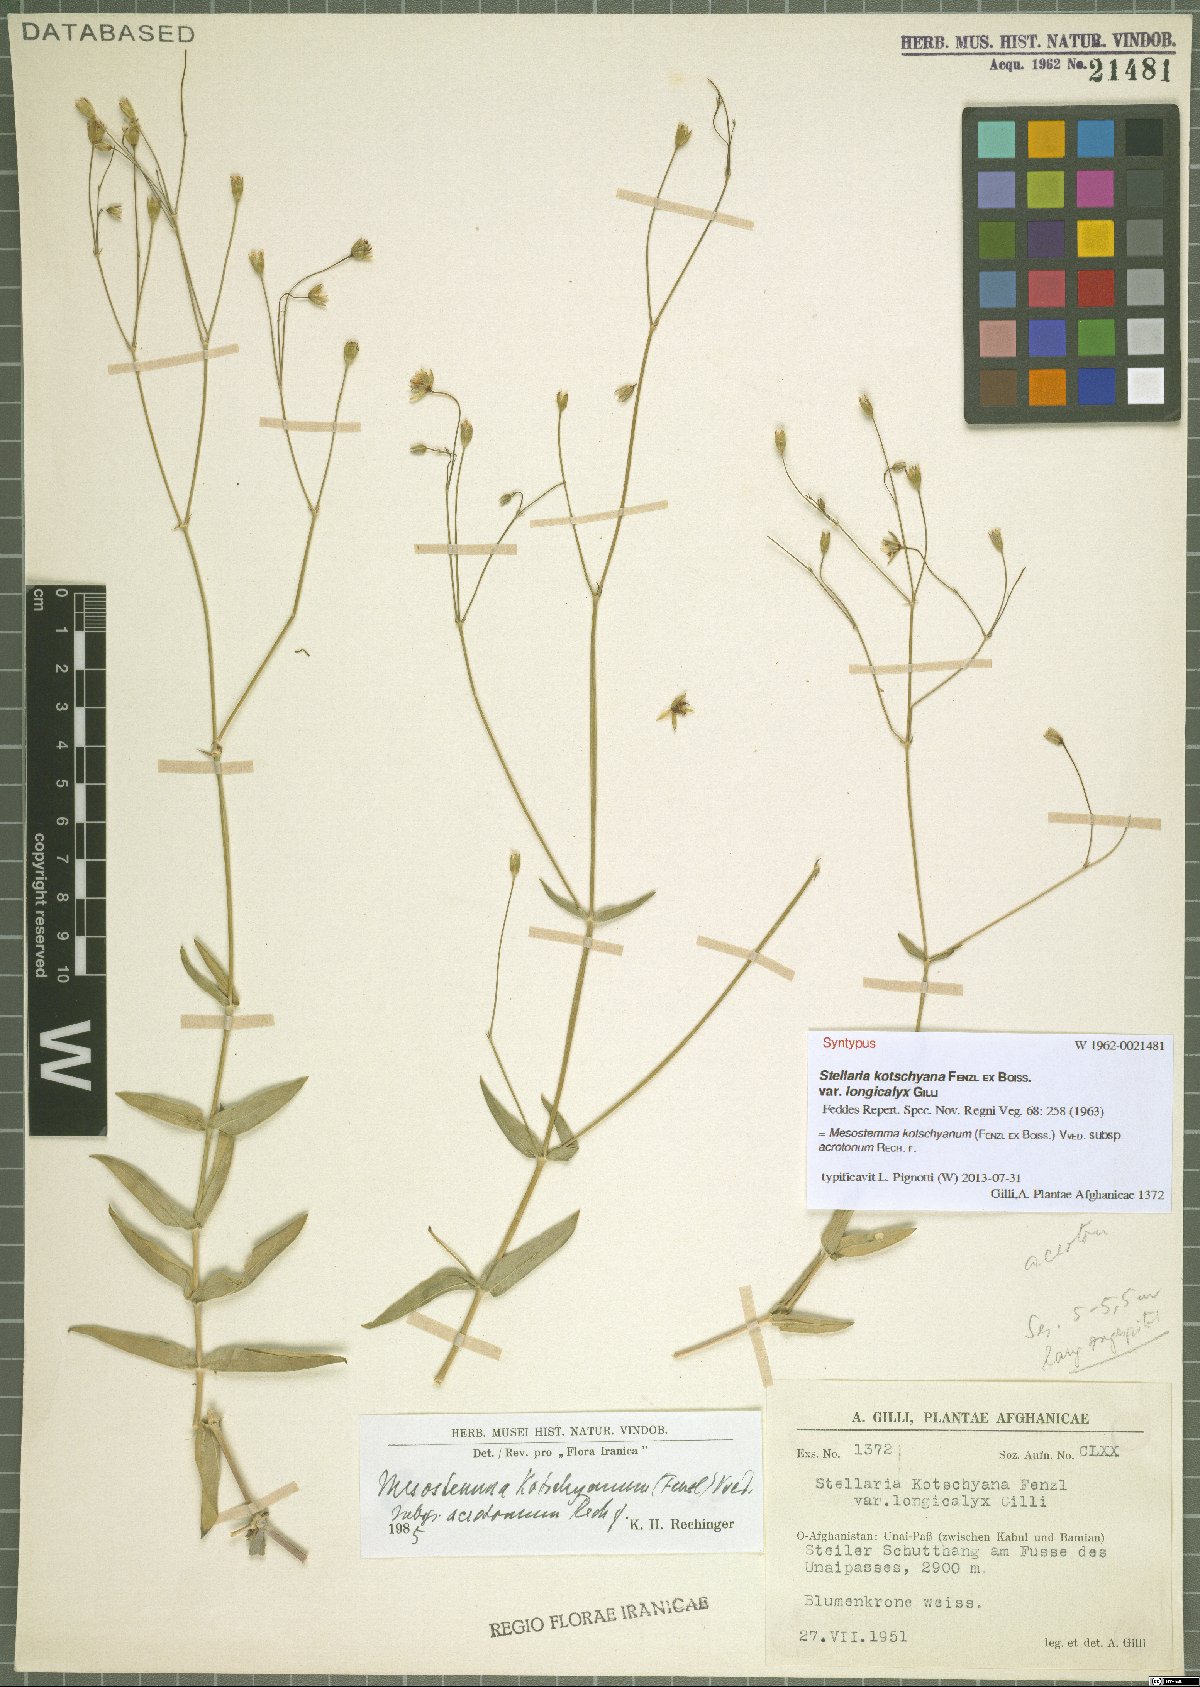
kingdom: Plantae
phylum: Tracheophyta
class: Magnoliopsida
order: Caryophyllales
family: Caryophyllaceae
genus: Mesostemma
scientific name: Mesostemma kotschyanum
